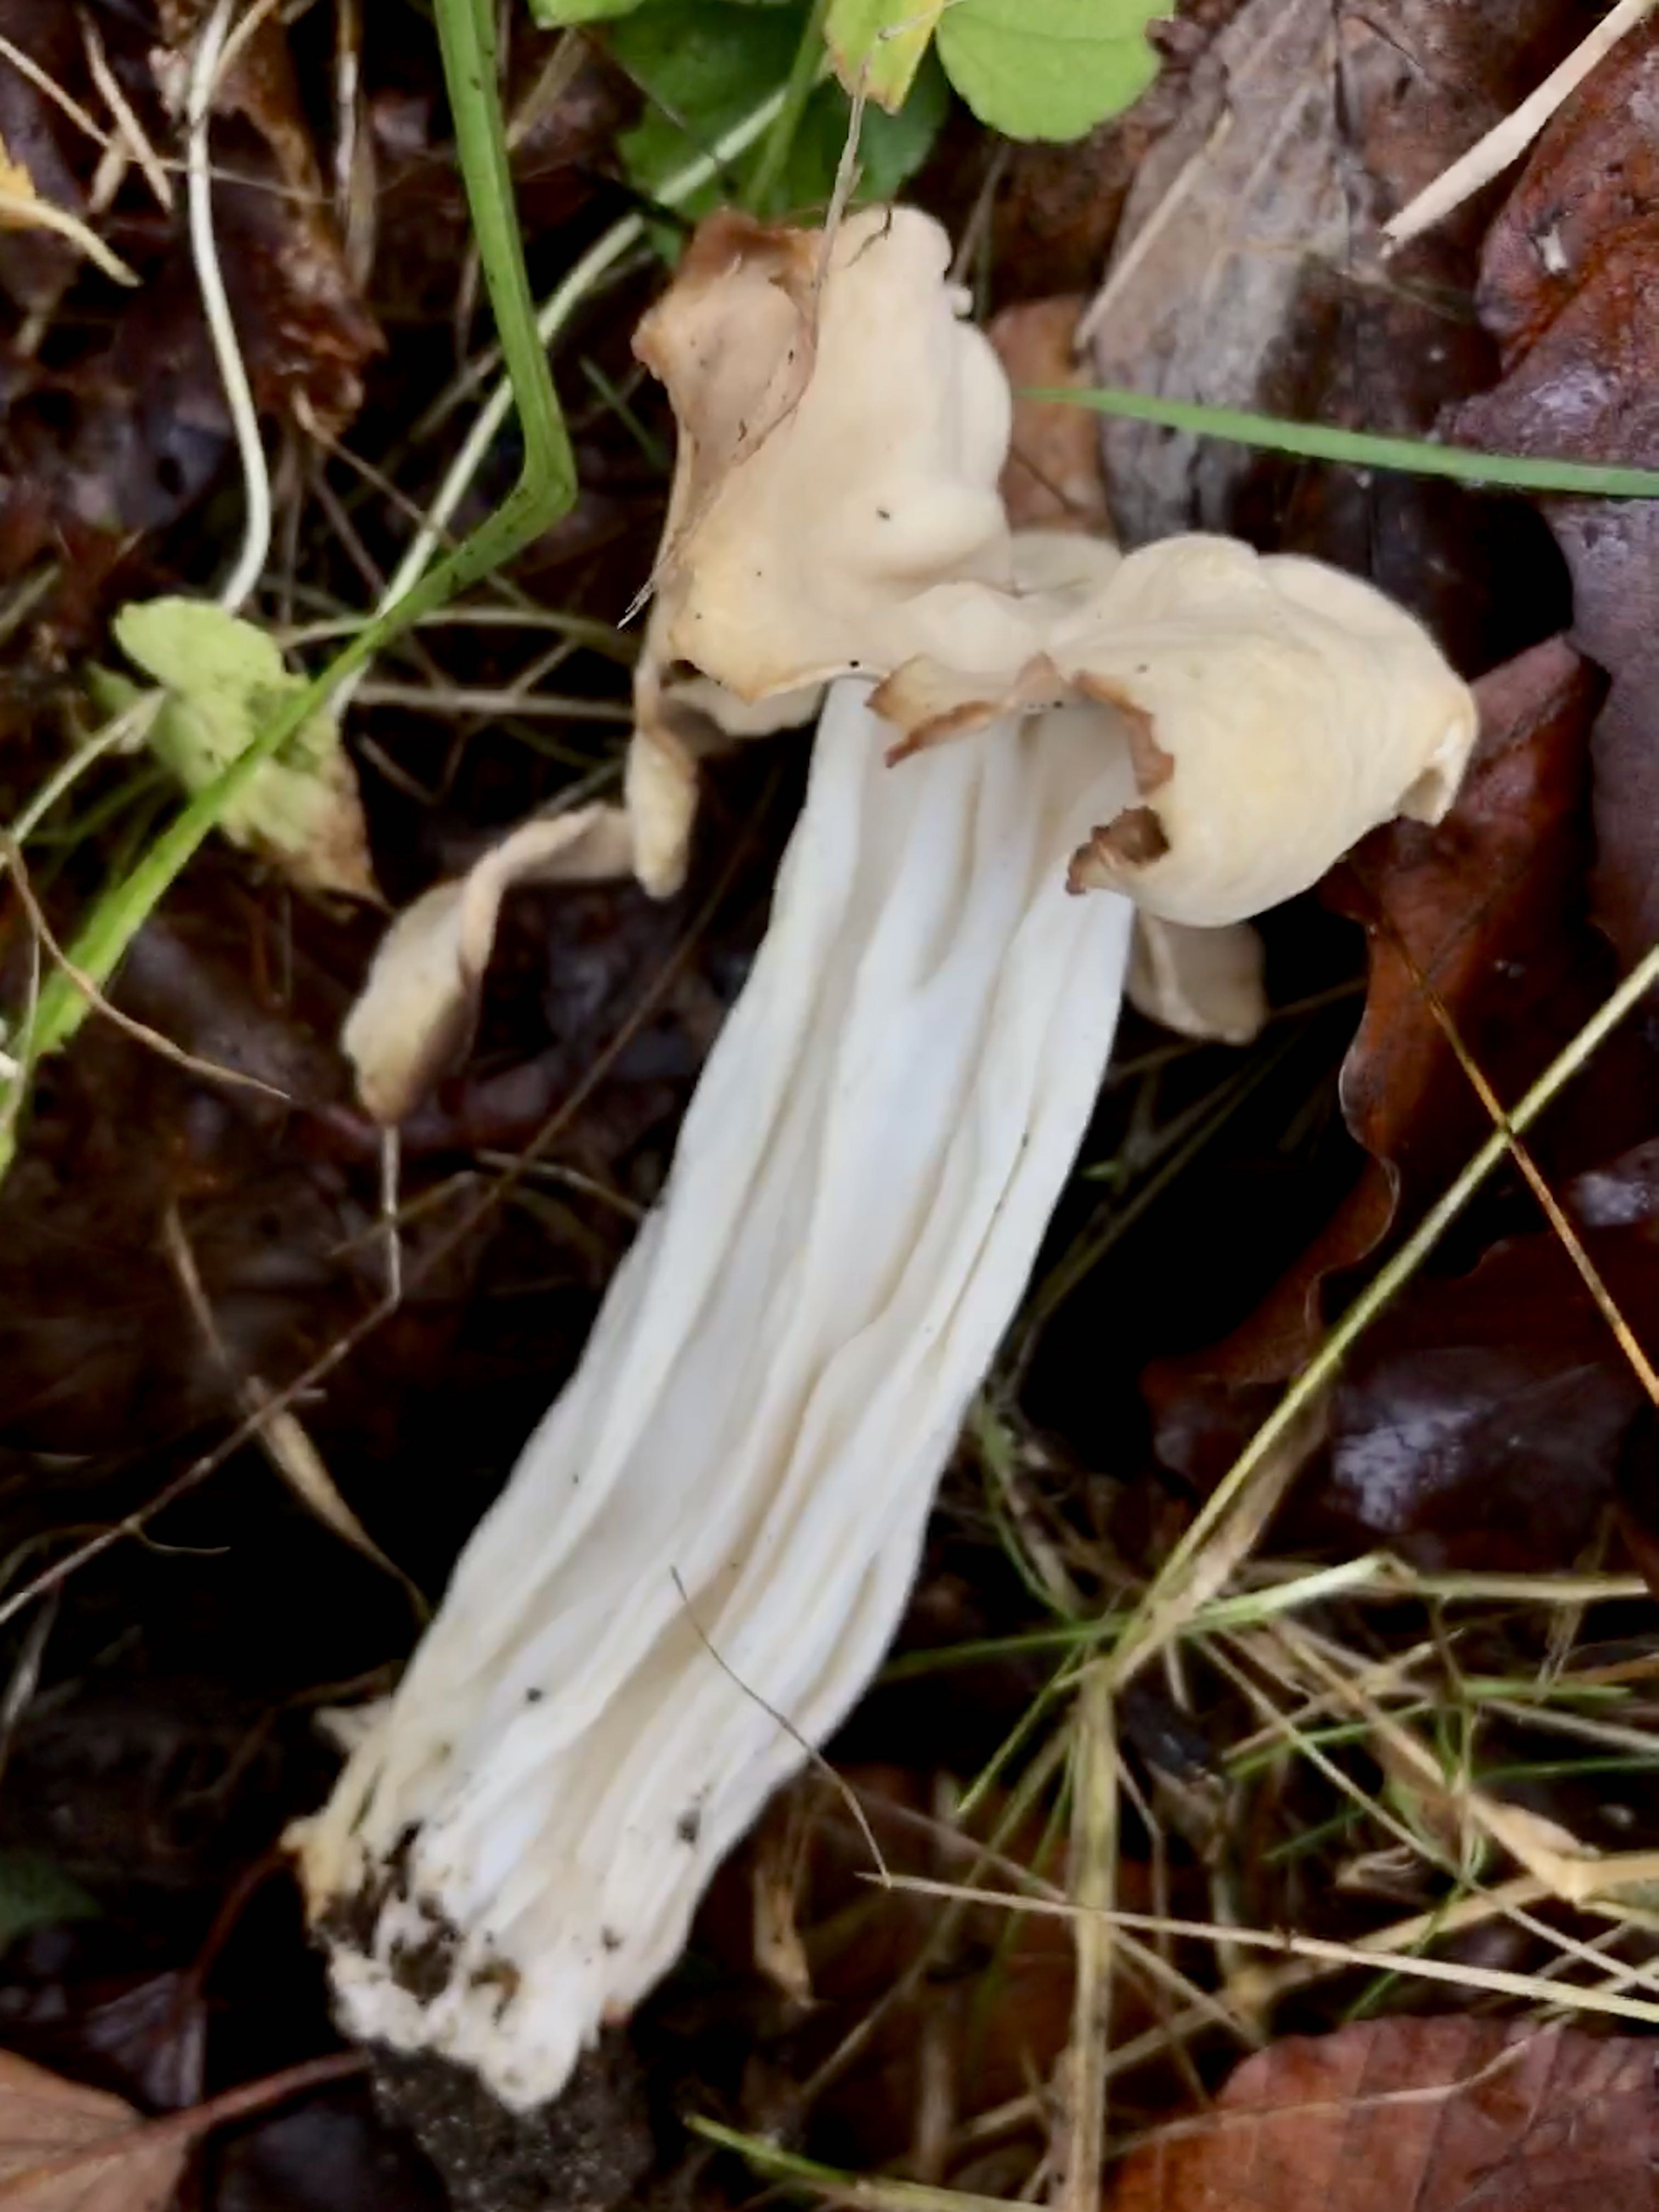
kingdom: Fungi
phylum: Ascomycota
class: Pezizomycetes
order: Pezizales
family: Helvellaceae
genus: Helvella
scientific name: Helvella crispa
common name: kruset foldhat
